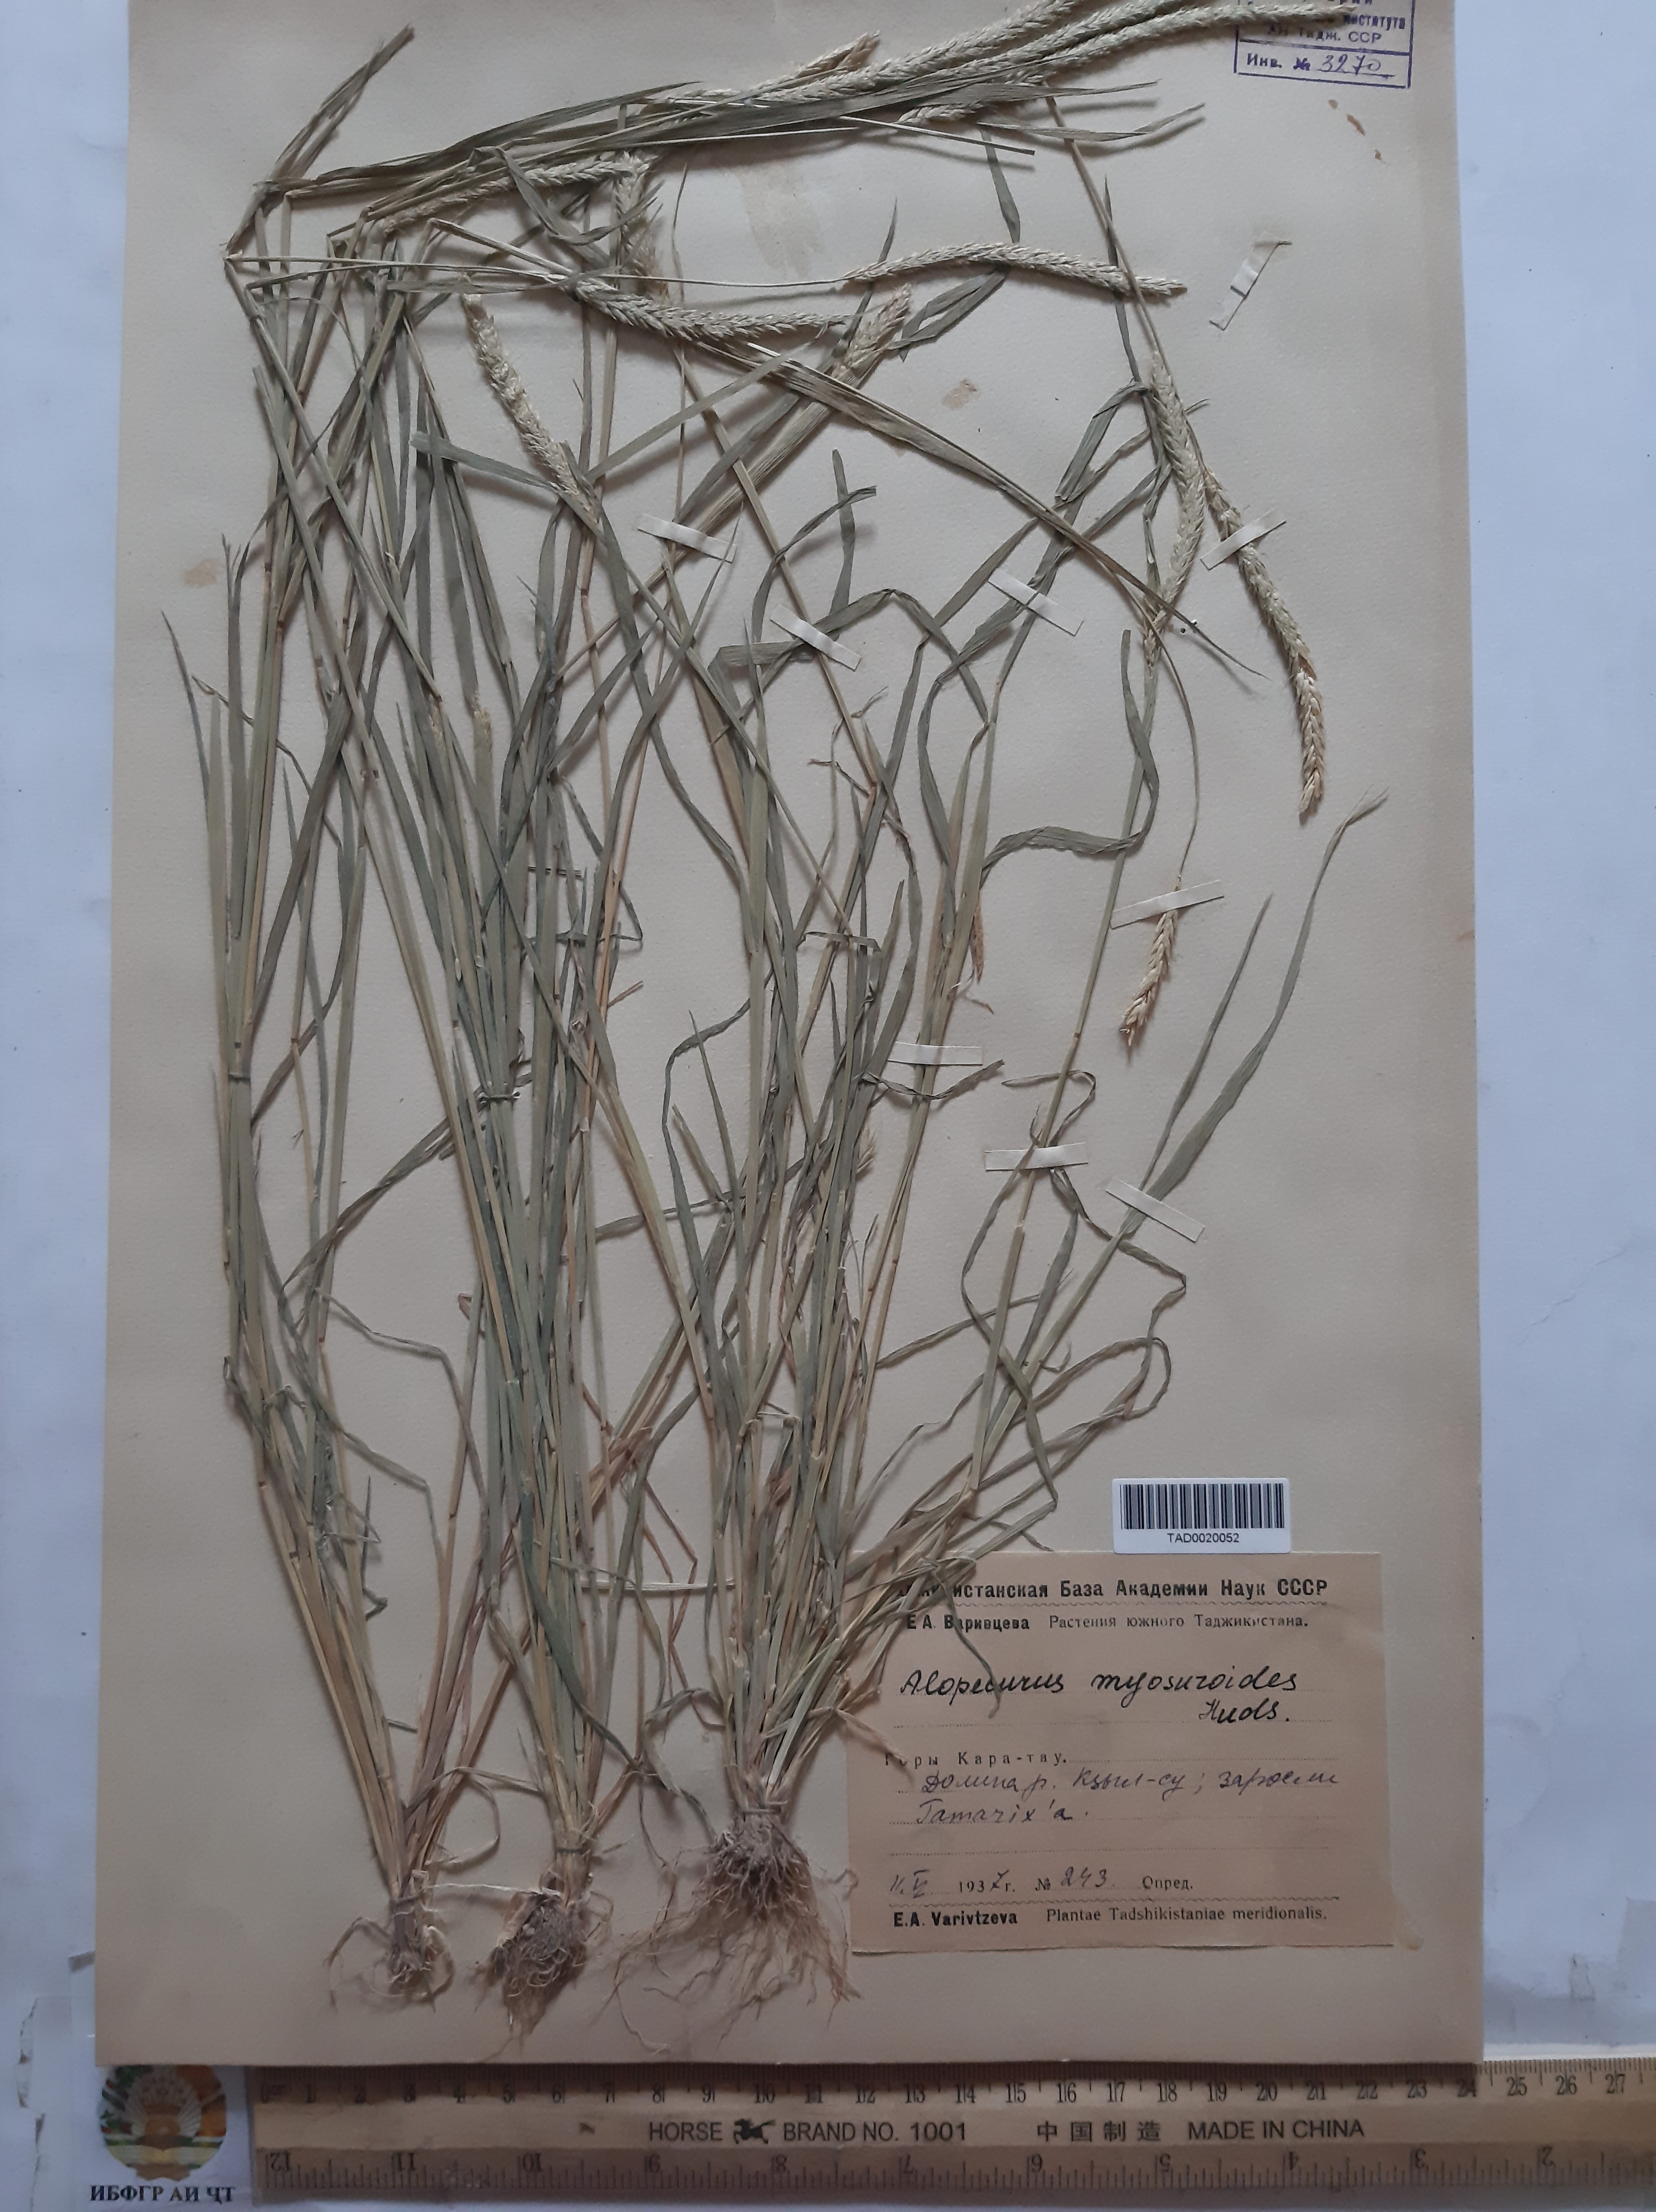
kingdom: Plantae
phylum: Tracheophyta
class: Liliopsida
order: Poales
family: Poaceae
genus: Alopecurus
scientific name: Alopecurus myosuroides
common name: Black-grass
